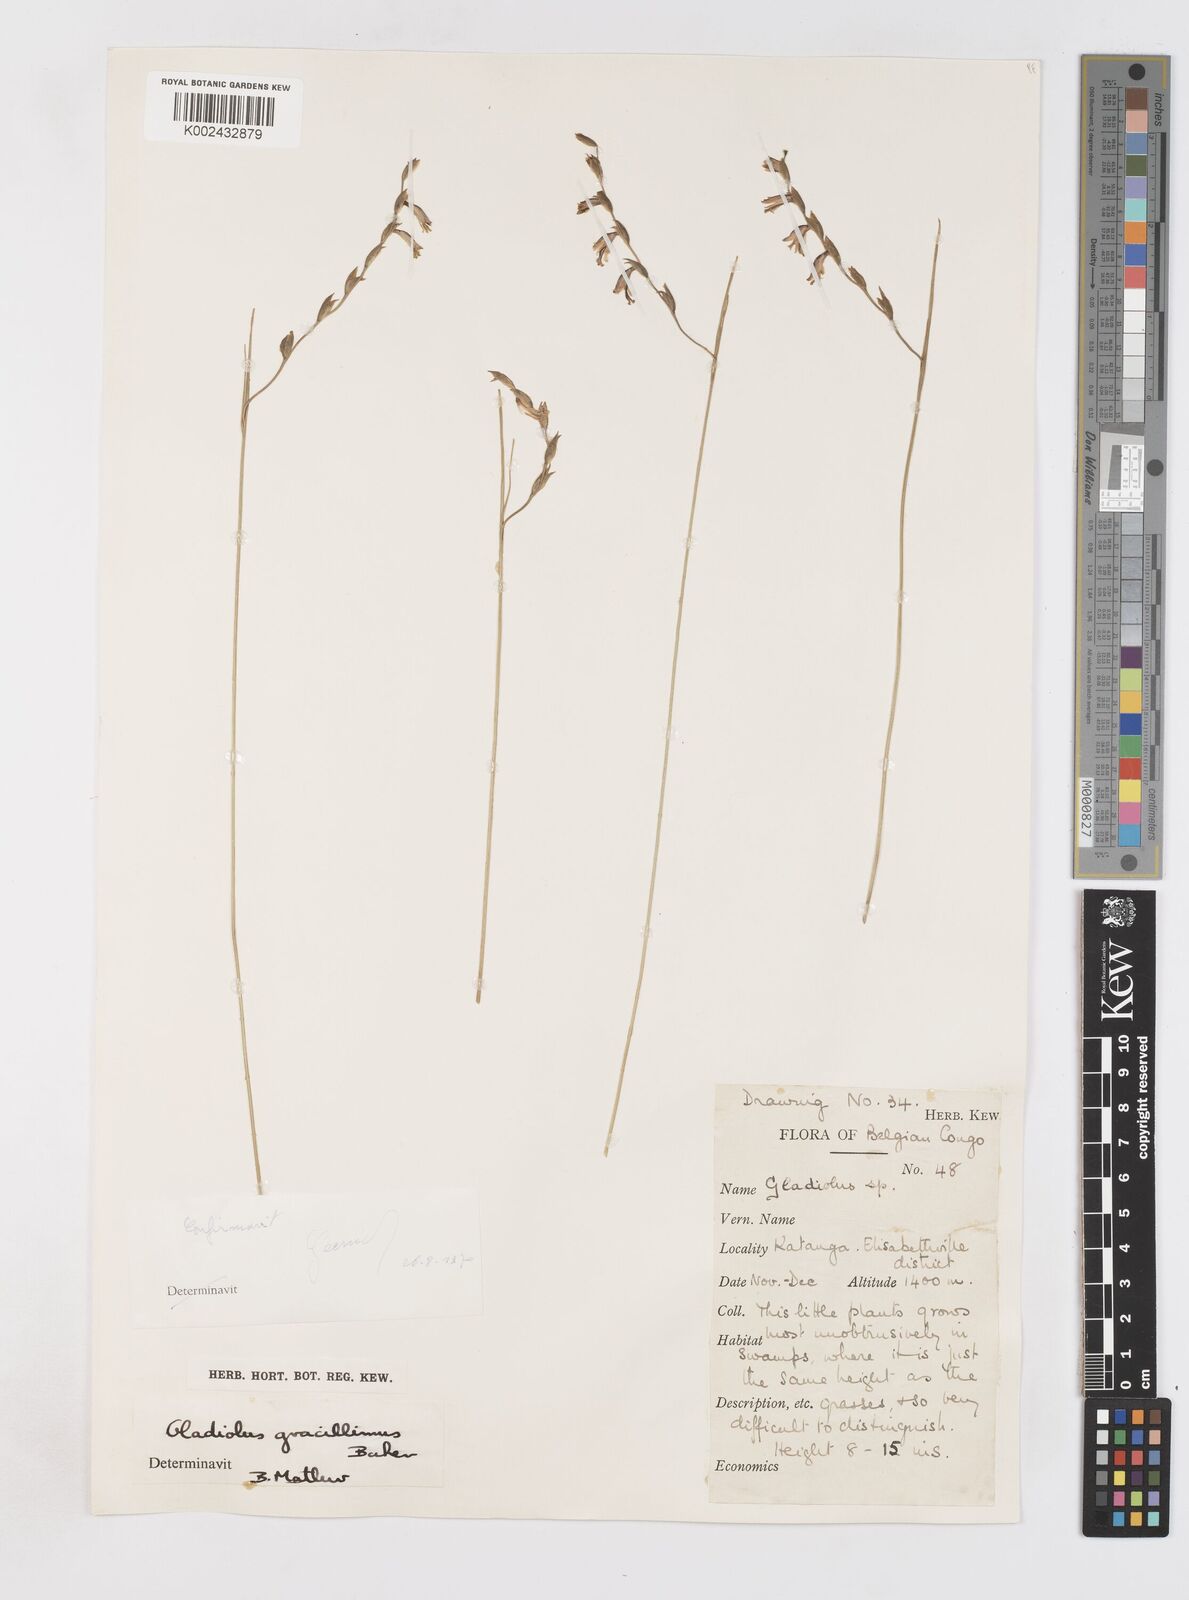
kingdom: Plantae
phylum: Tracheophyta
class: Liliopsida
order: Asparagales
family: Iridaceae
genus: Gladiolus
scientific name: Gladiolus gracillimus
